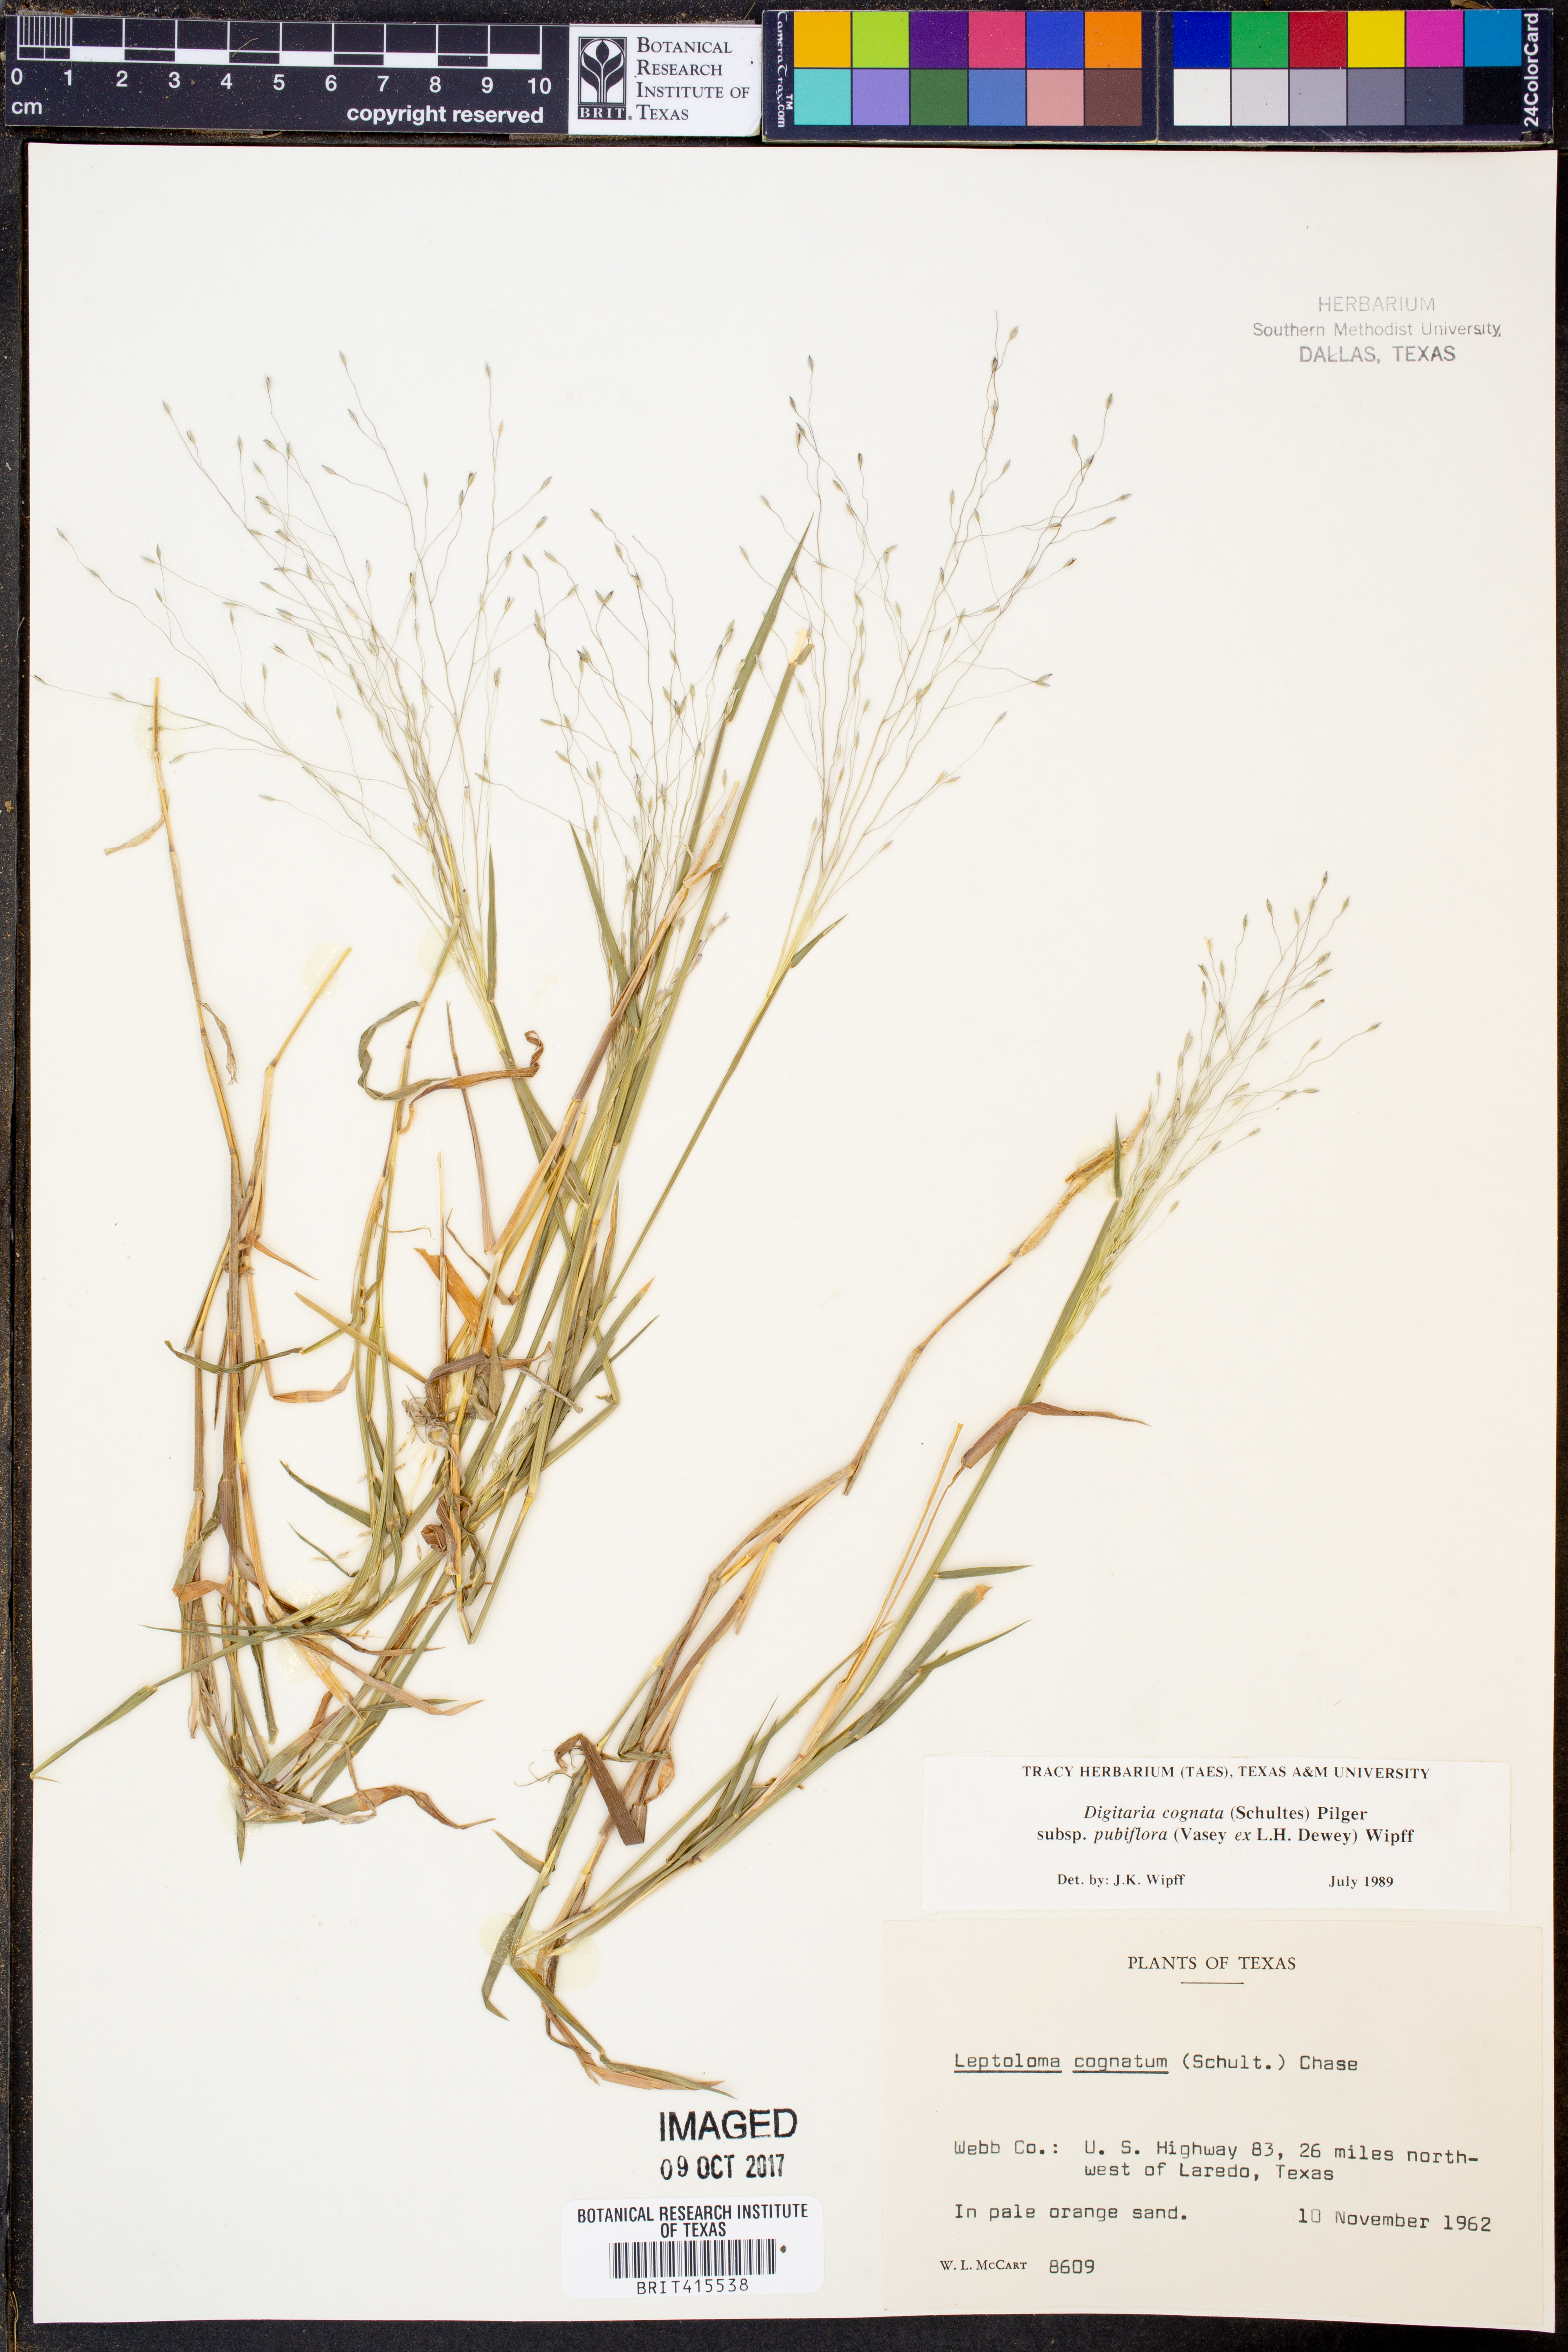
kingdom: Plantae
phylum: Tracheophyta
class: Liliopsida
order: Poales
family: Poaceae
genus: Digitaria
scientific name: Digitaria cognata
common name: Fall witchgrass
